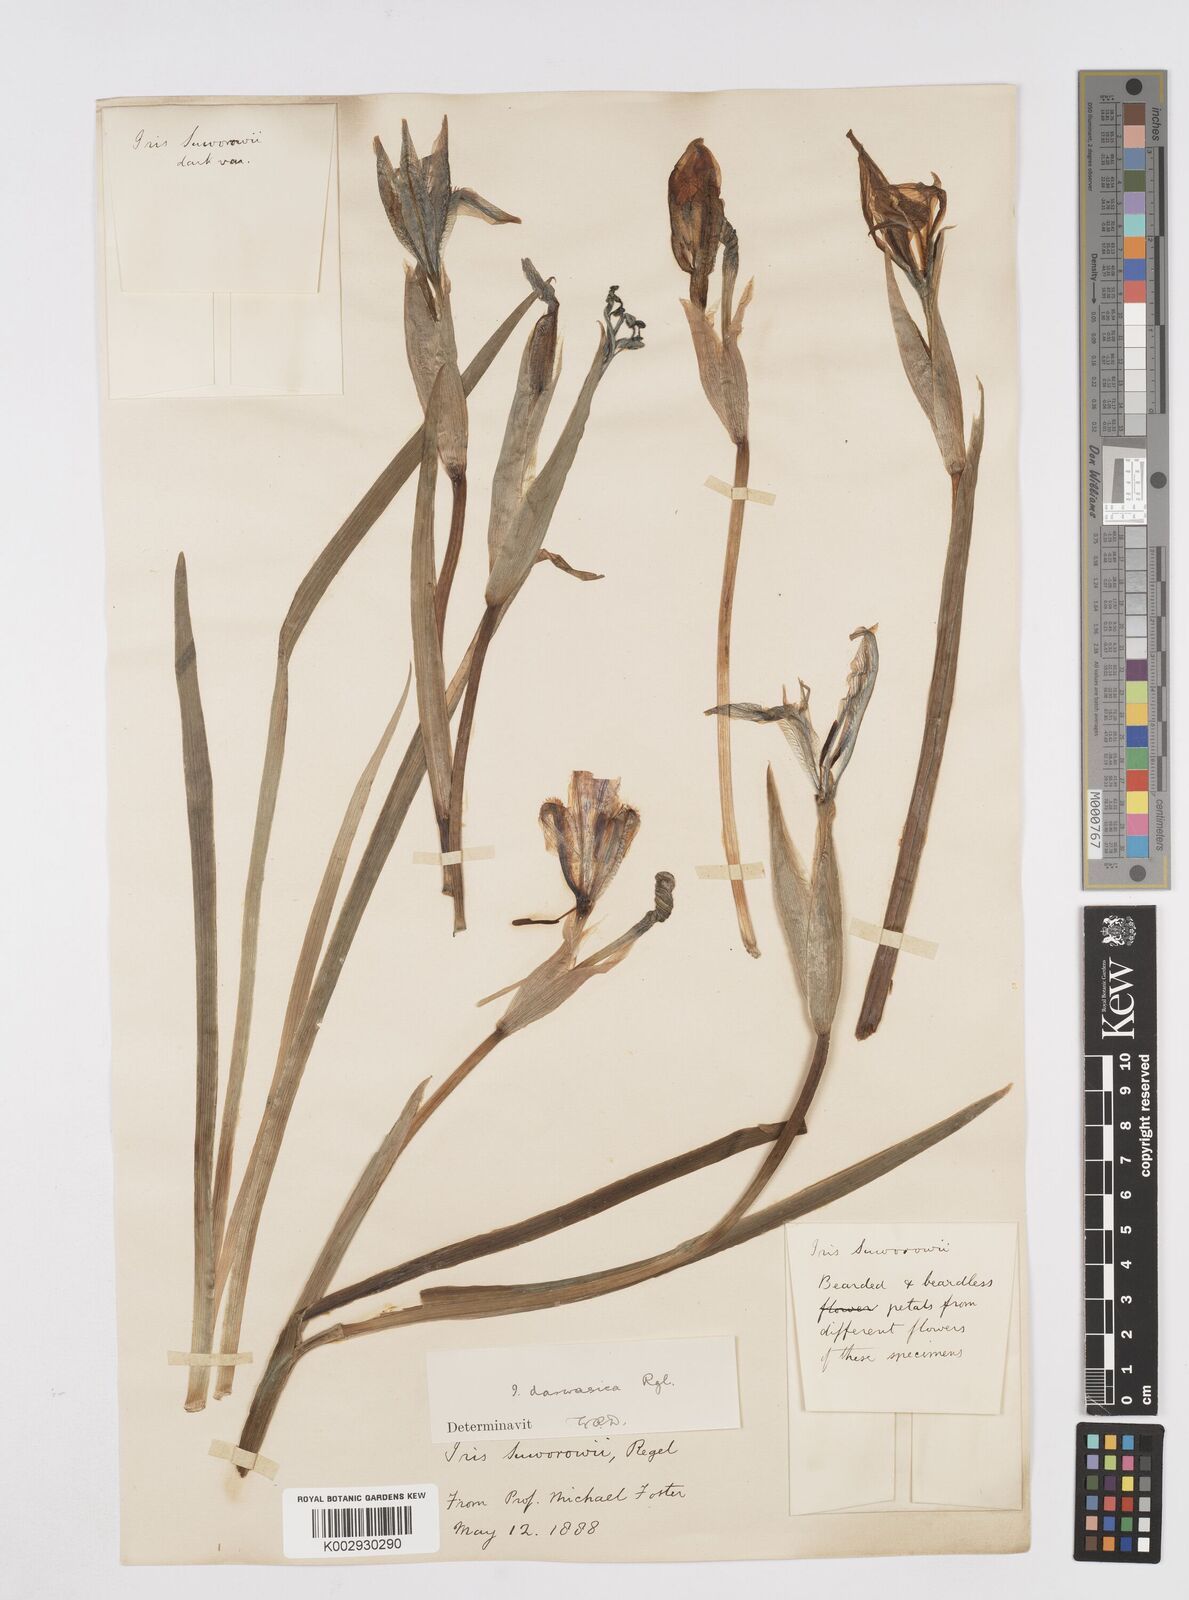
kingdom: Plantae
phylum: Tracheophyta
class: Liliopsida
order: Asparagales
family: Iridaceae
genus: Iris
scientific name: Iris lineata
